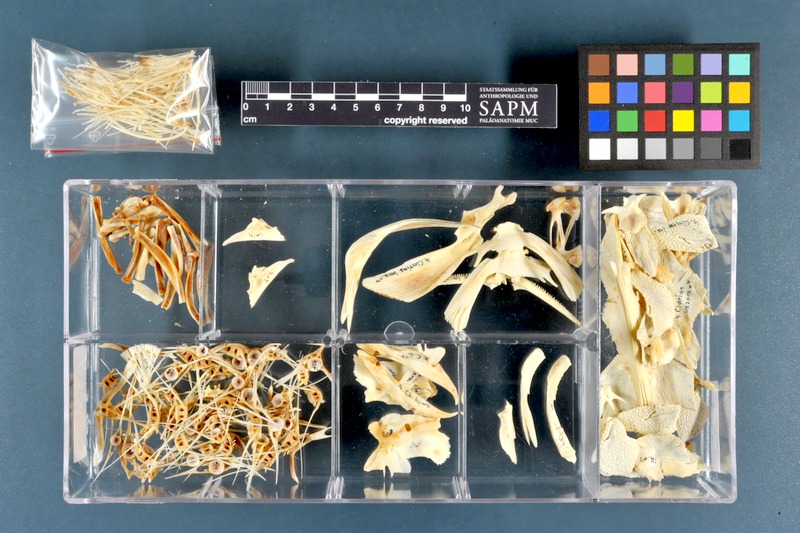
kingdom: Animalia
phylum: Chordata
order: Siluriformes
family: Clariidae
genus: Clarias
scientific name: Clarias gariepinus
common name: African catfish
